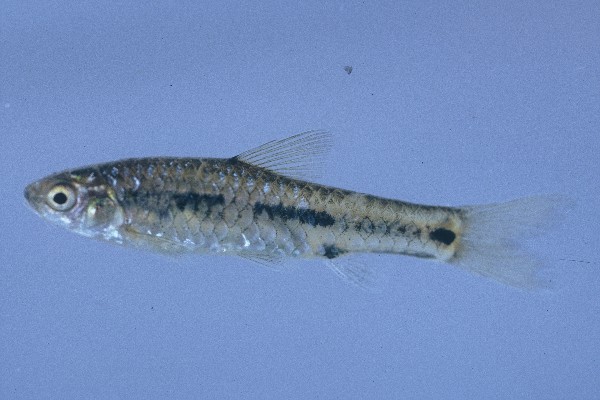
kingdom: Animalia
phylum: Chordata
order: Cypriniformes
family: Cyprinidae
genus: Enteromius
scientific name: Enteromius atkinsoni
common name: Dash-dot barb
